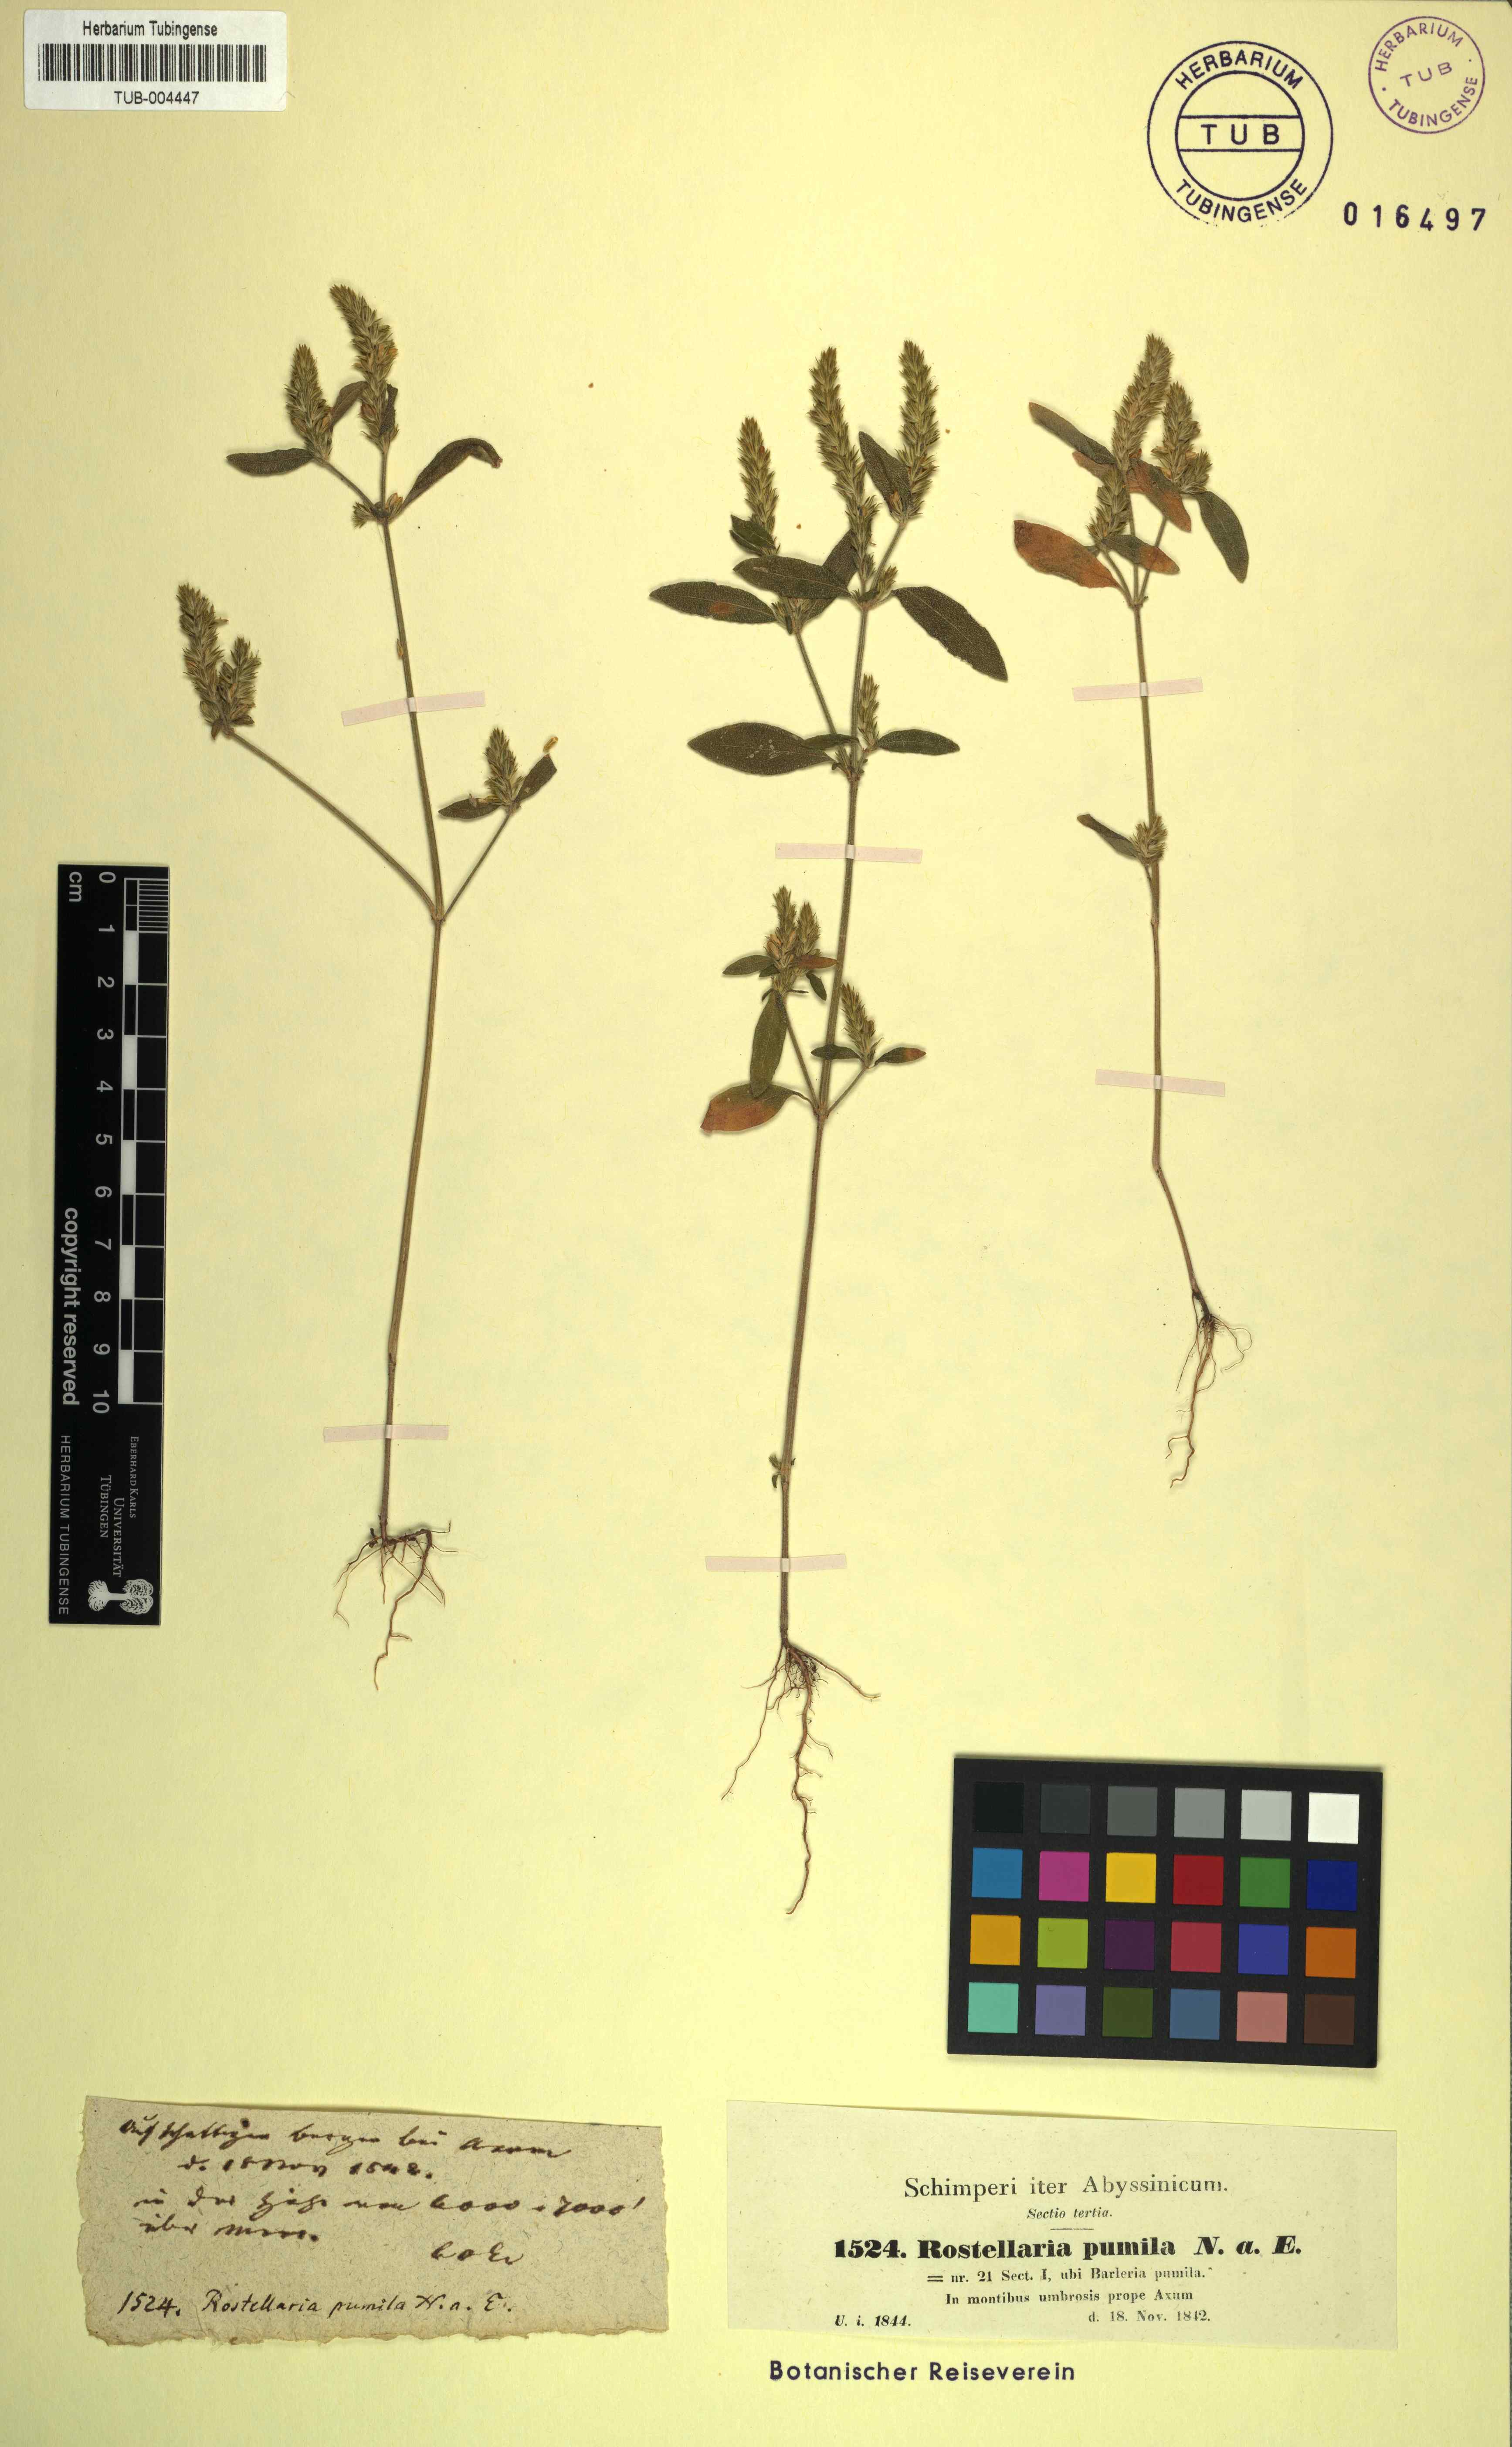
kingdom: Plantae
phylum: Tracheophyta
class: Magnoliopsida
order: Lamiales
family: Acanthaceae
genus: Rostellularia
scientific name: Rostellularia mollissima
